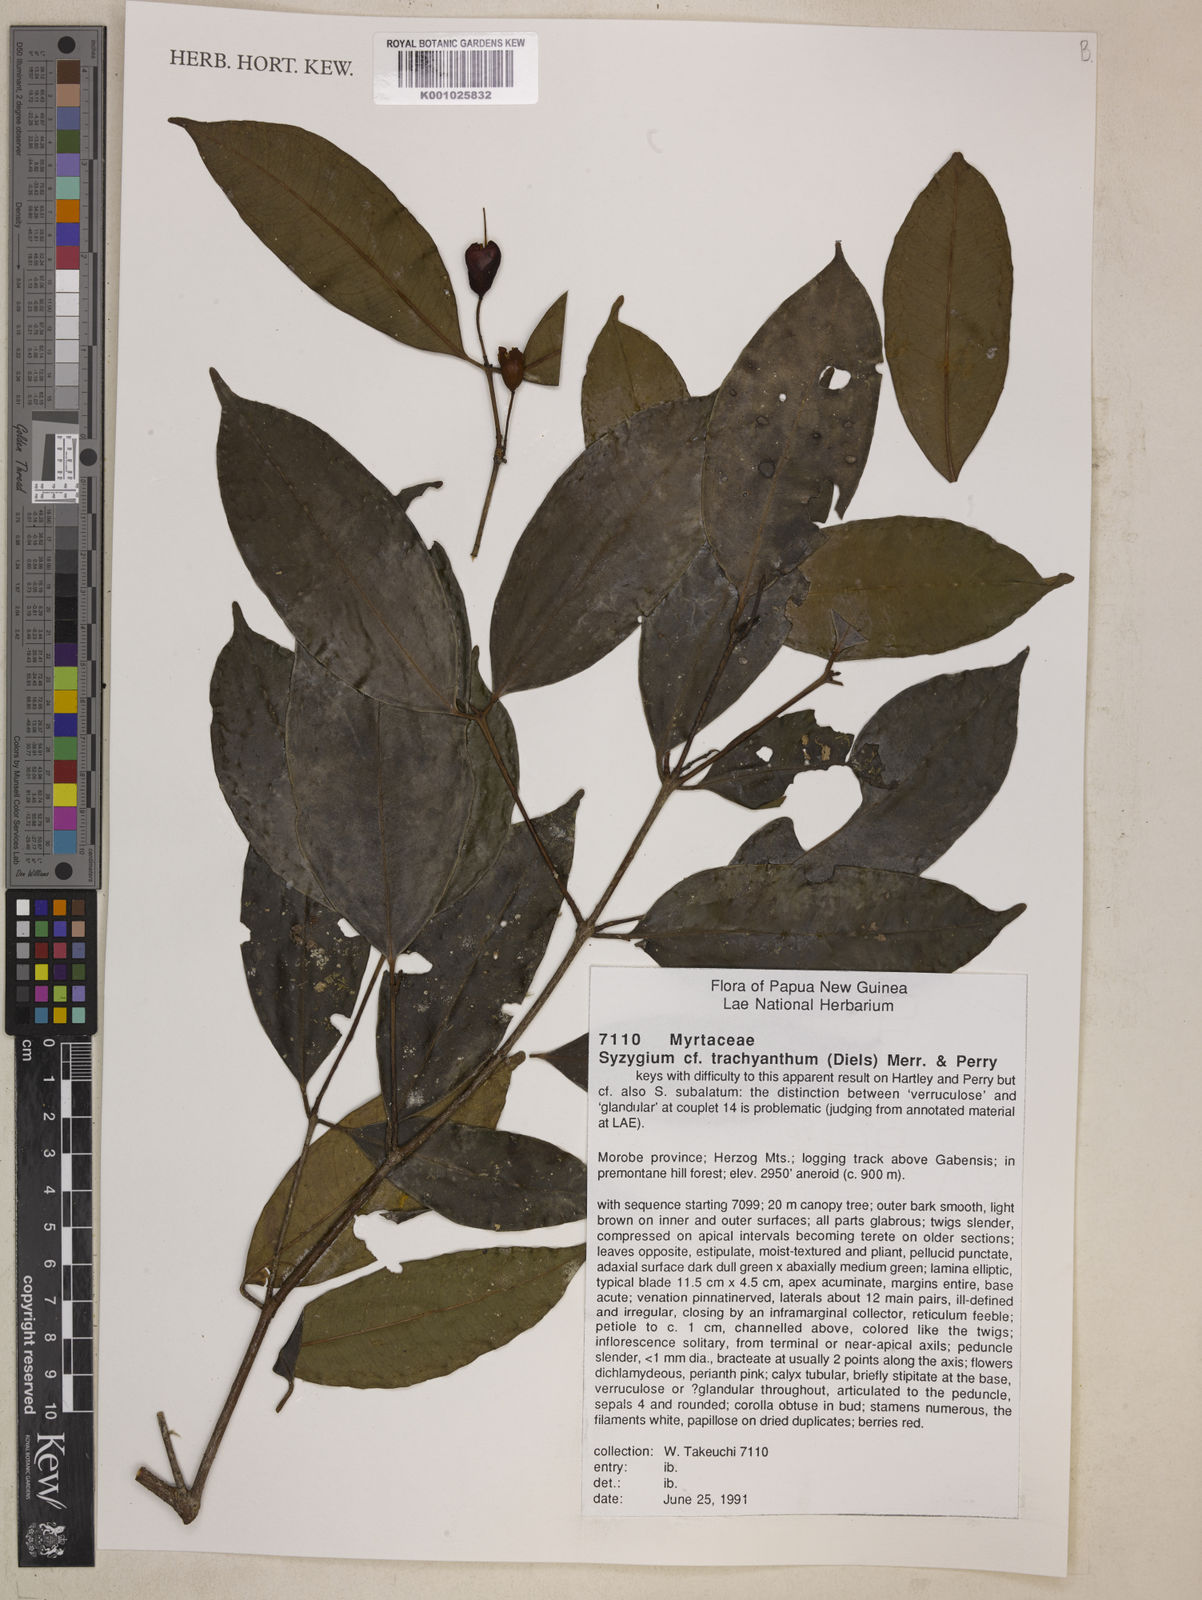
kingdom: Plantae
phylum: Tracheophyta
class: Magnoliopsida
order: Myrtales
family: Myrtaceae
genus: Syzygium
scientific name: Syzygium trachyanthum
